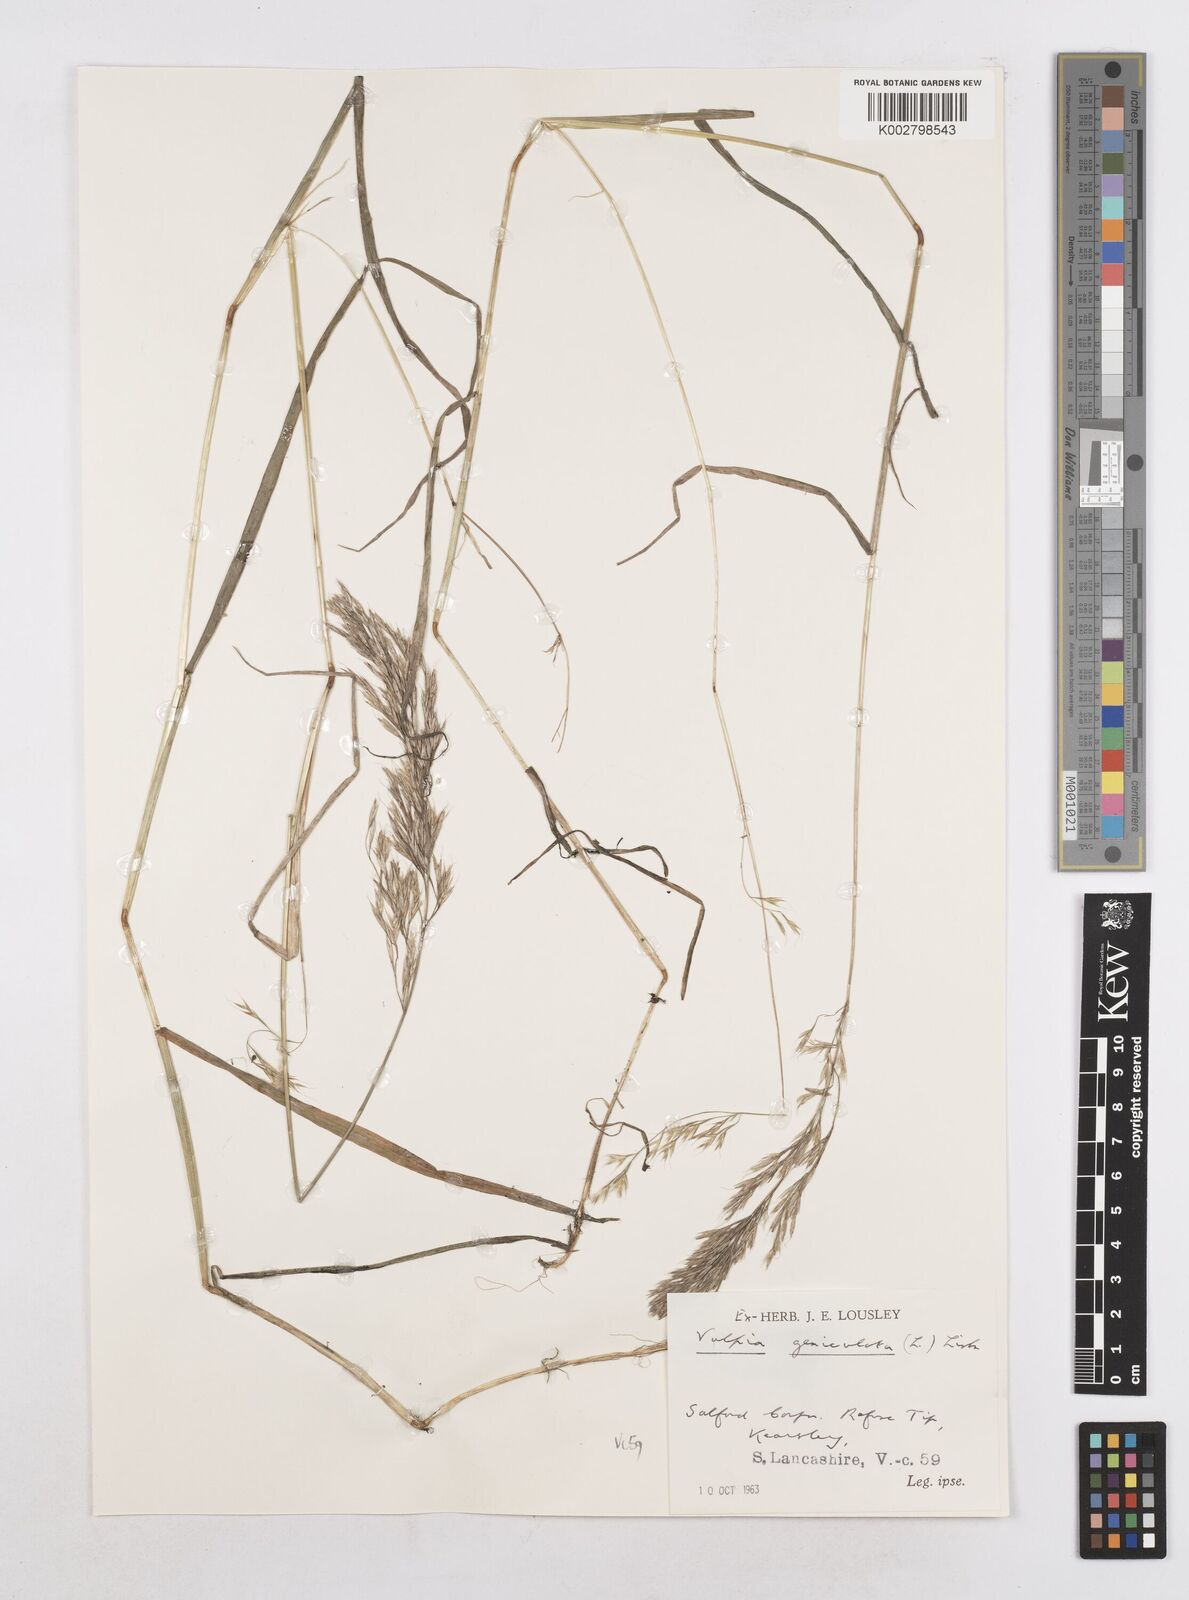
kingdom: Plantae
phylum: Tracheophyta
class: Liliopsida
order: Poales
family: Poaceae
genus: Festuca
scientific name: Festuca geniculata
